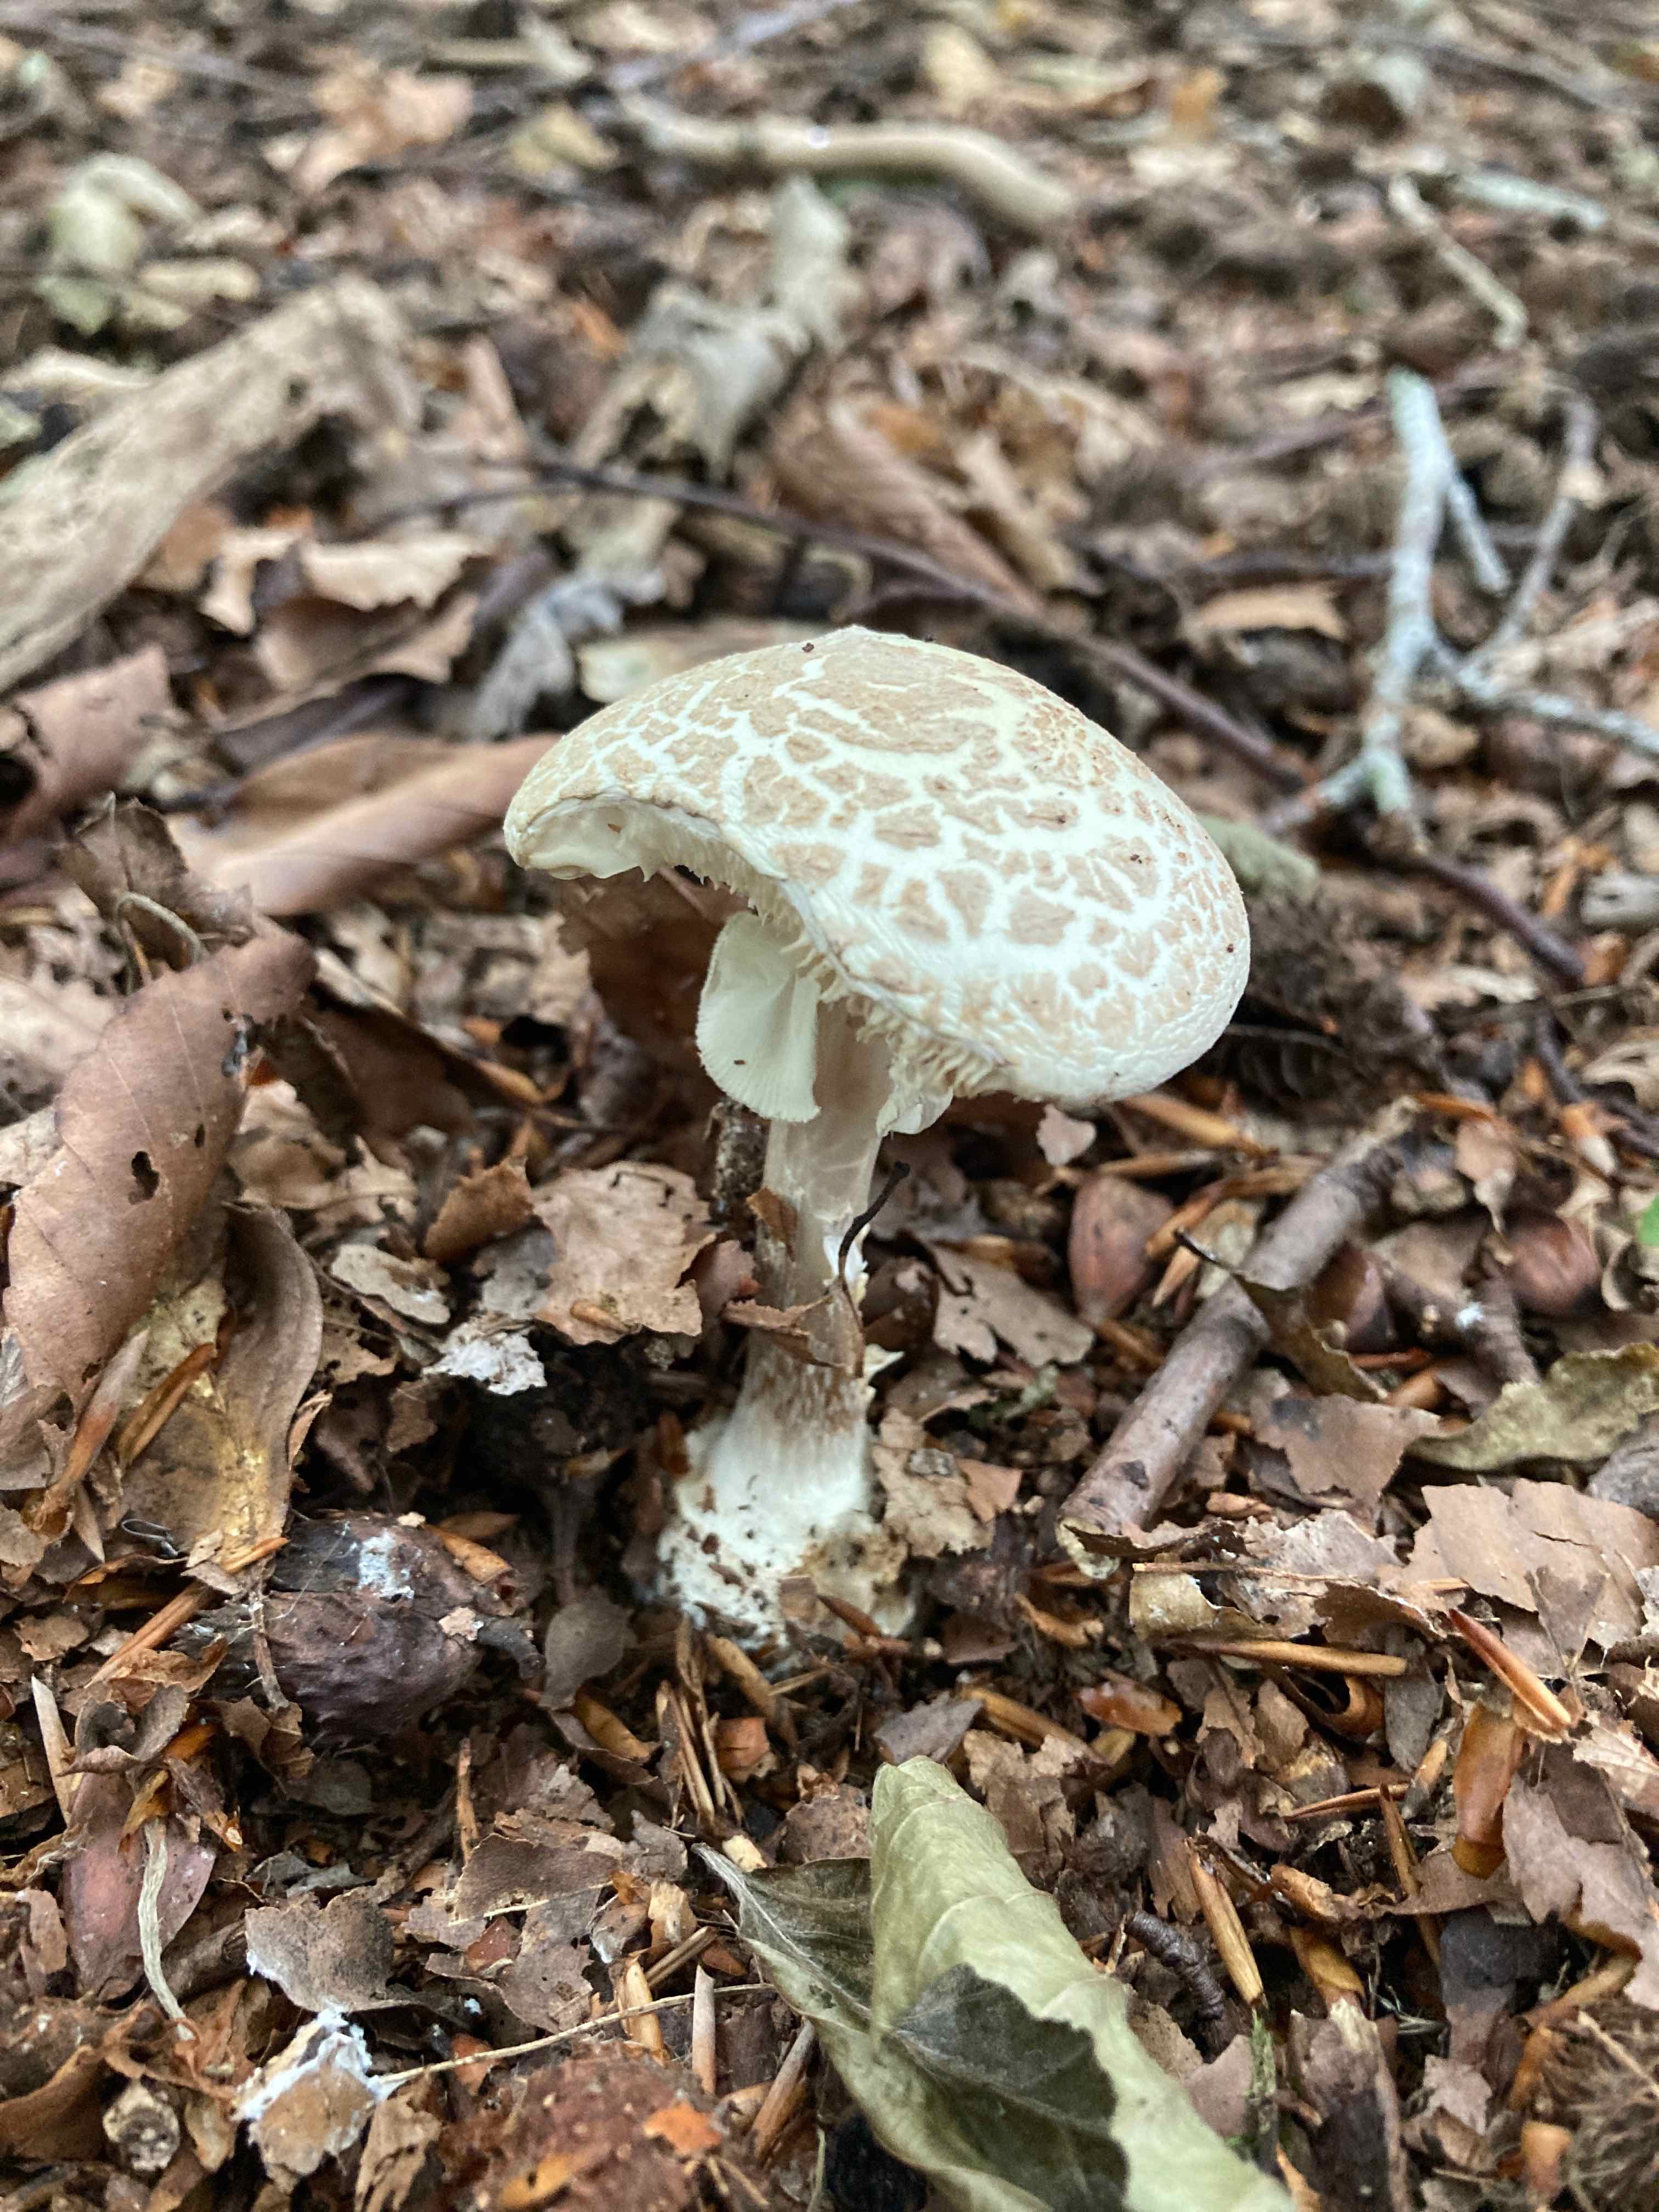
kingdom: Fungi
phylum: Basidiomycota
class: Agaricomycetes
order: Agaricales
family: Amanitaceae
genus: Amanita
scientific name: Amanita citrina
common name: kugleknoldet fluesvamp
